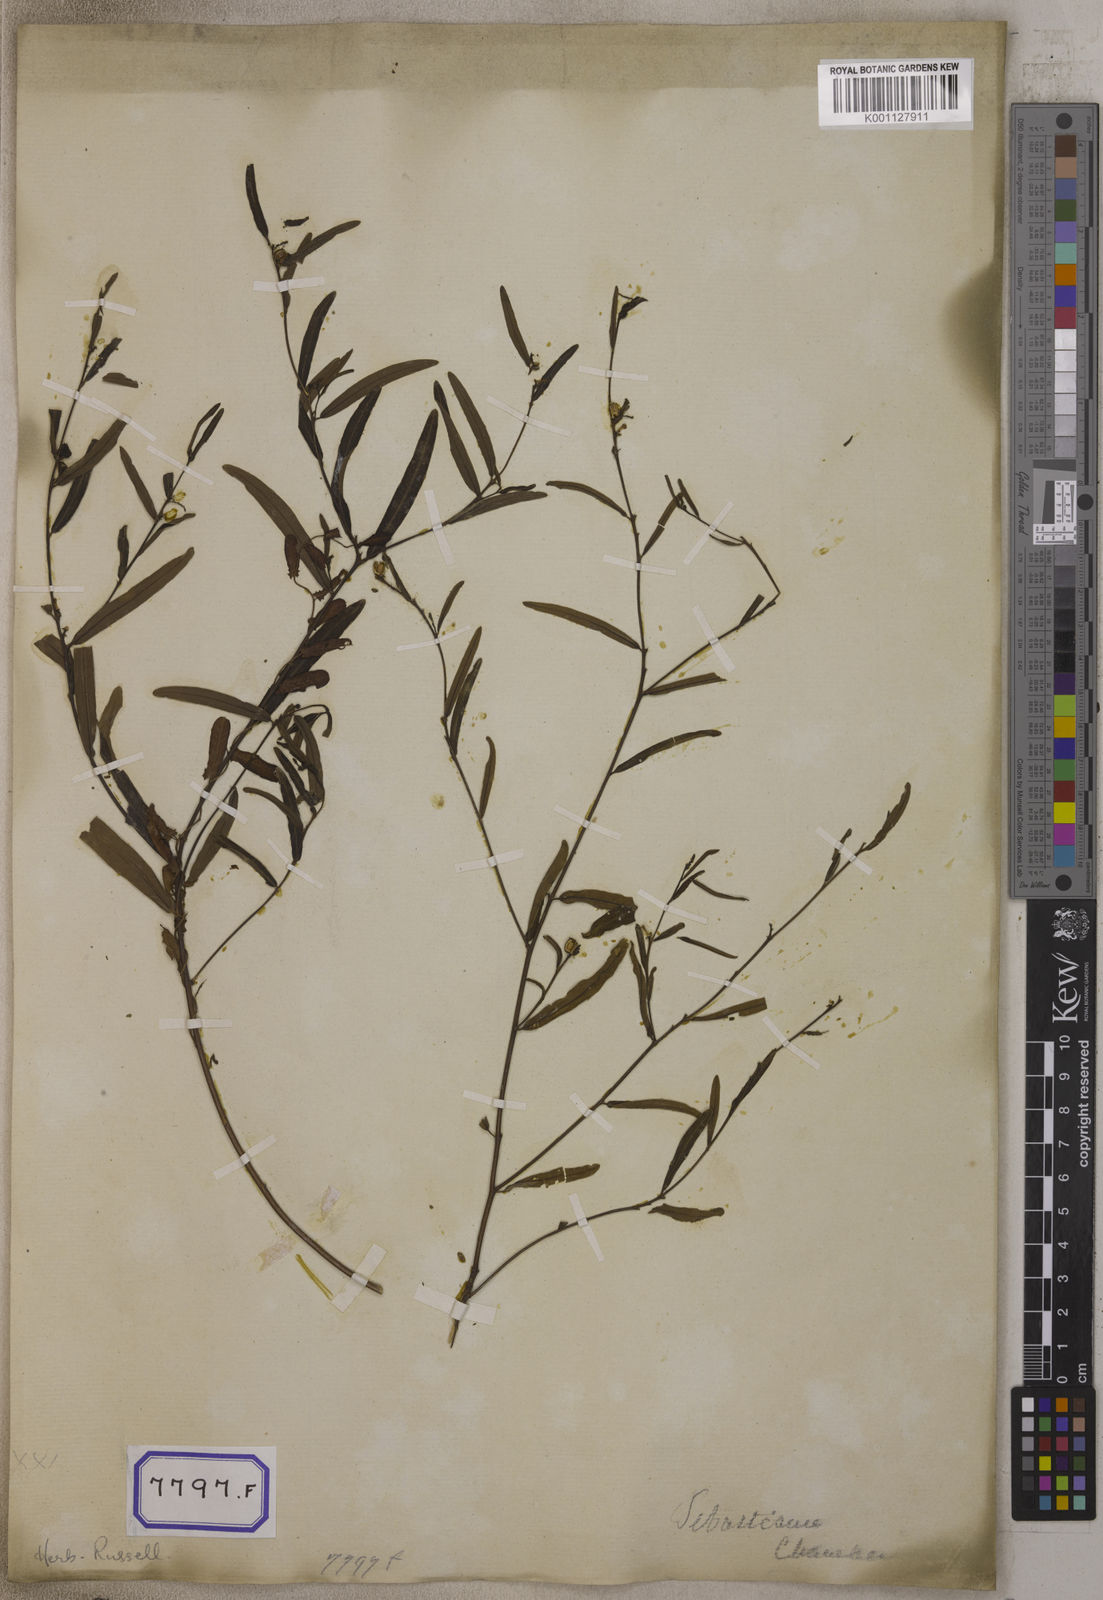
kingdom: Plantae
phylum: Tracheophyta
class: Magnoliopsida
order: Malpighiales
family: Euphorbiaceae
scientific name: Euphorbiaceae
